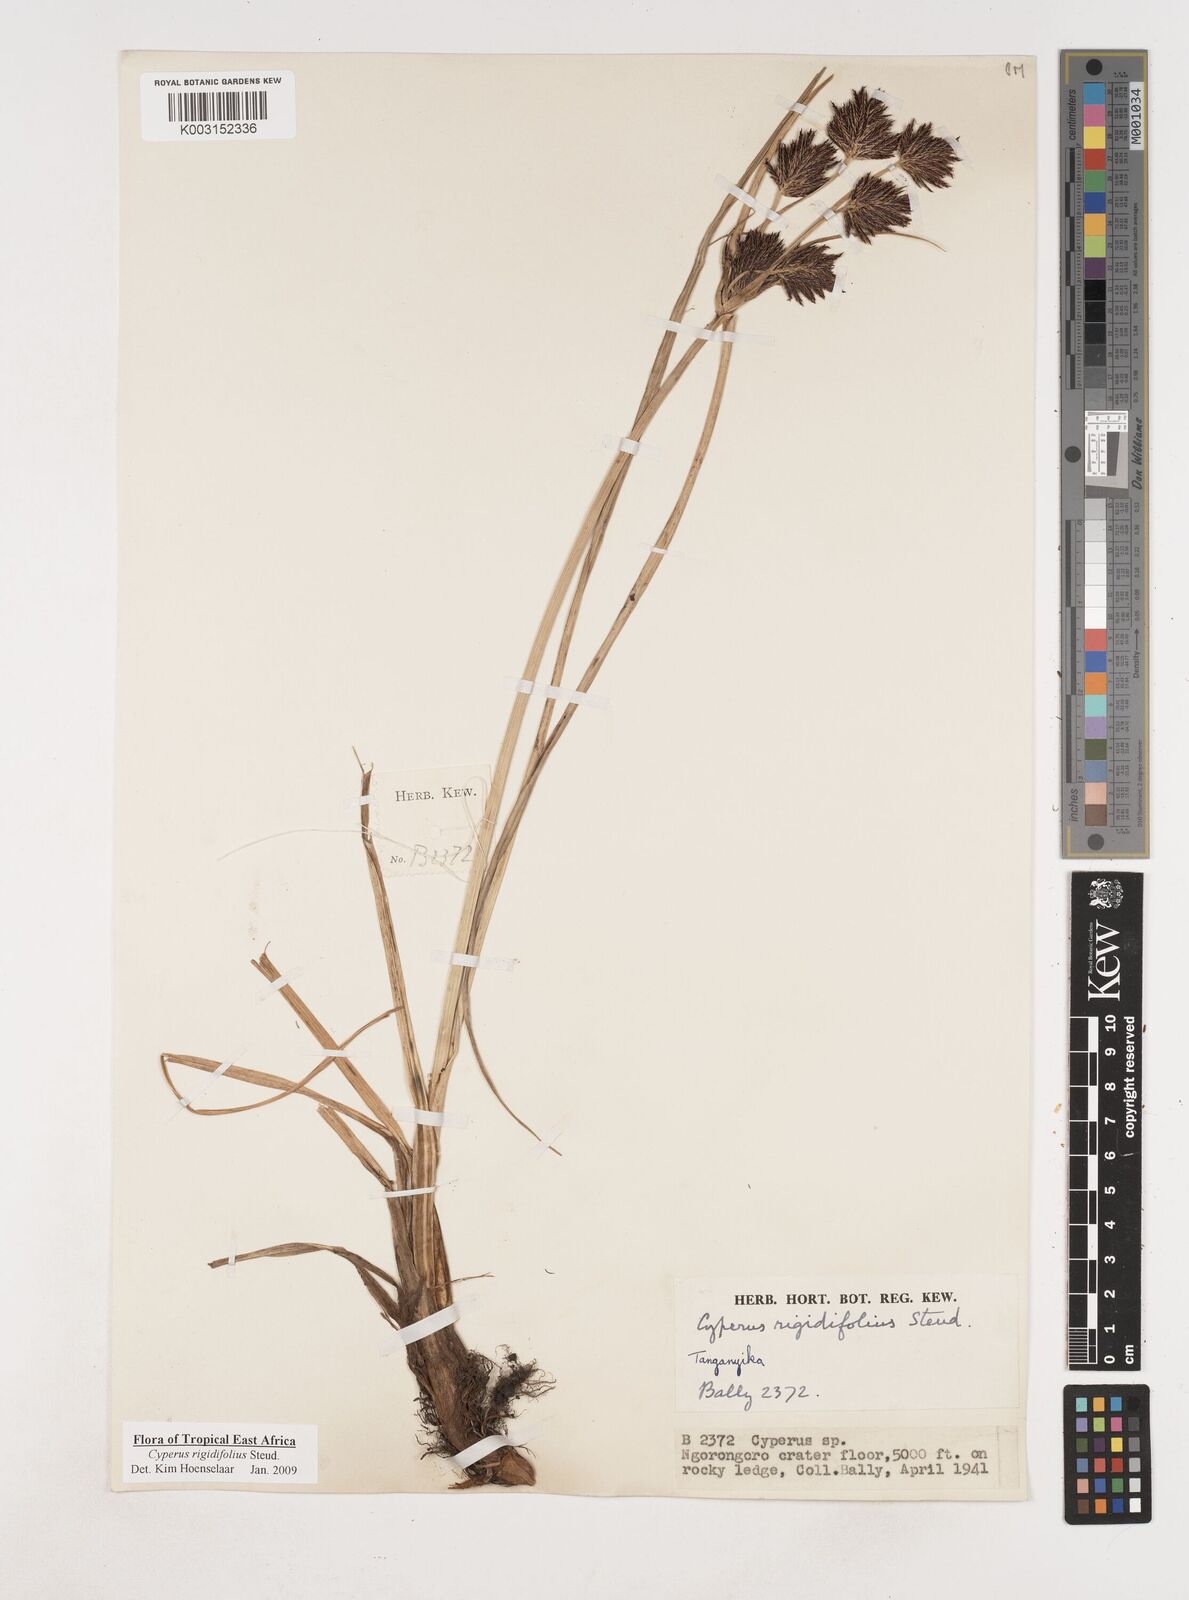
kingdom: Plantae
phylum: Tracheophyta
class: Liliopsida
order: Poales
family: Cyperaceae
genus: Cyperus
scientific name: Cyperus rigidifolius
